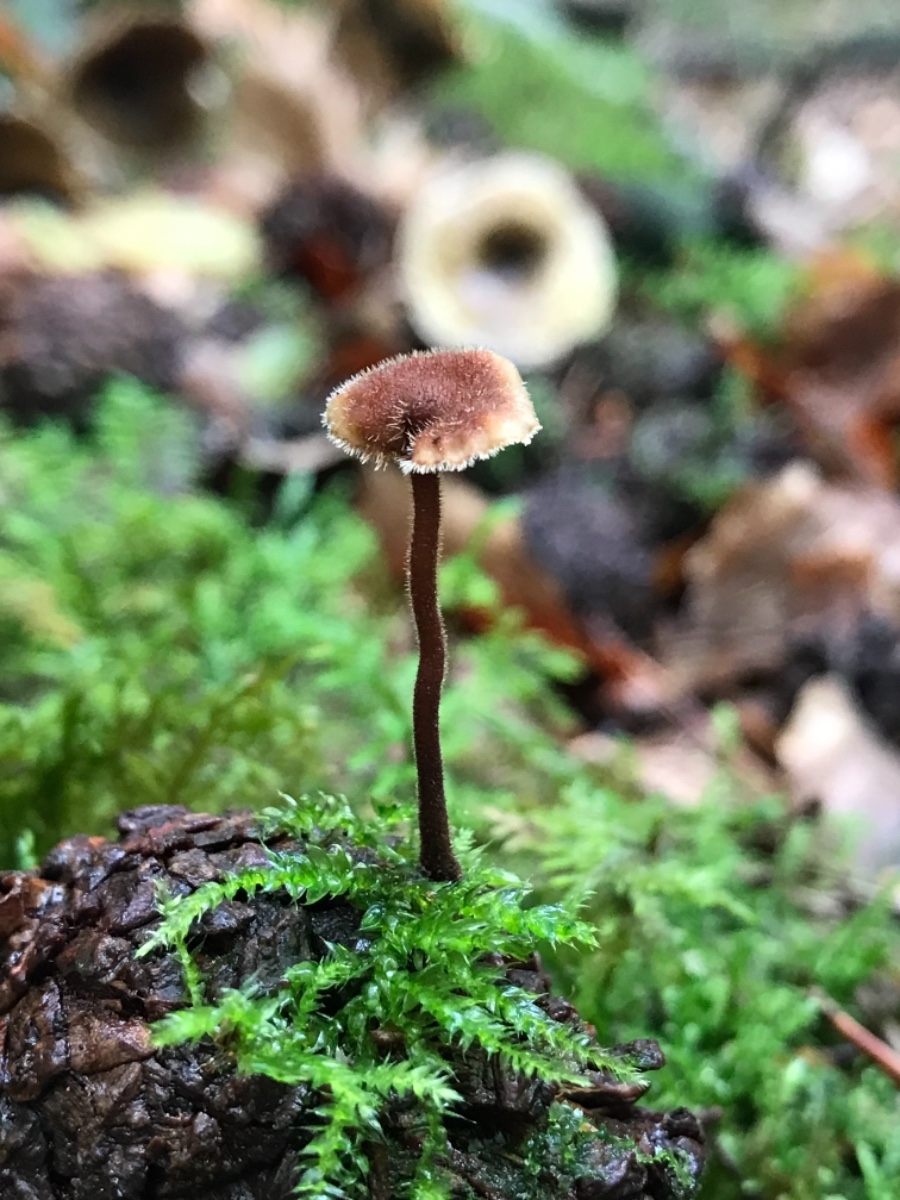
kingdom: Fungi
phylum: Basidiomycota
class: Agaricomycetes
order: Russulales
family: Auriscalpiaceae
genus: Auriscalpium
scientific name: Auriscalpium vulgare
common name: koglepigsvamp
